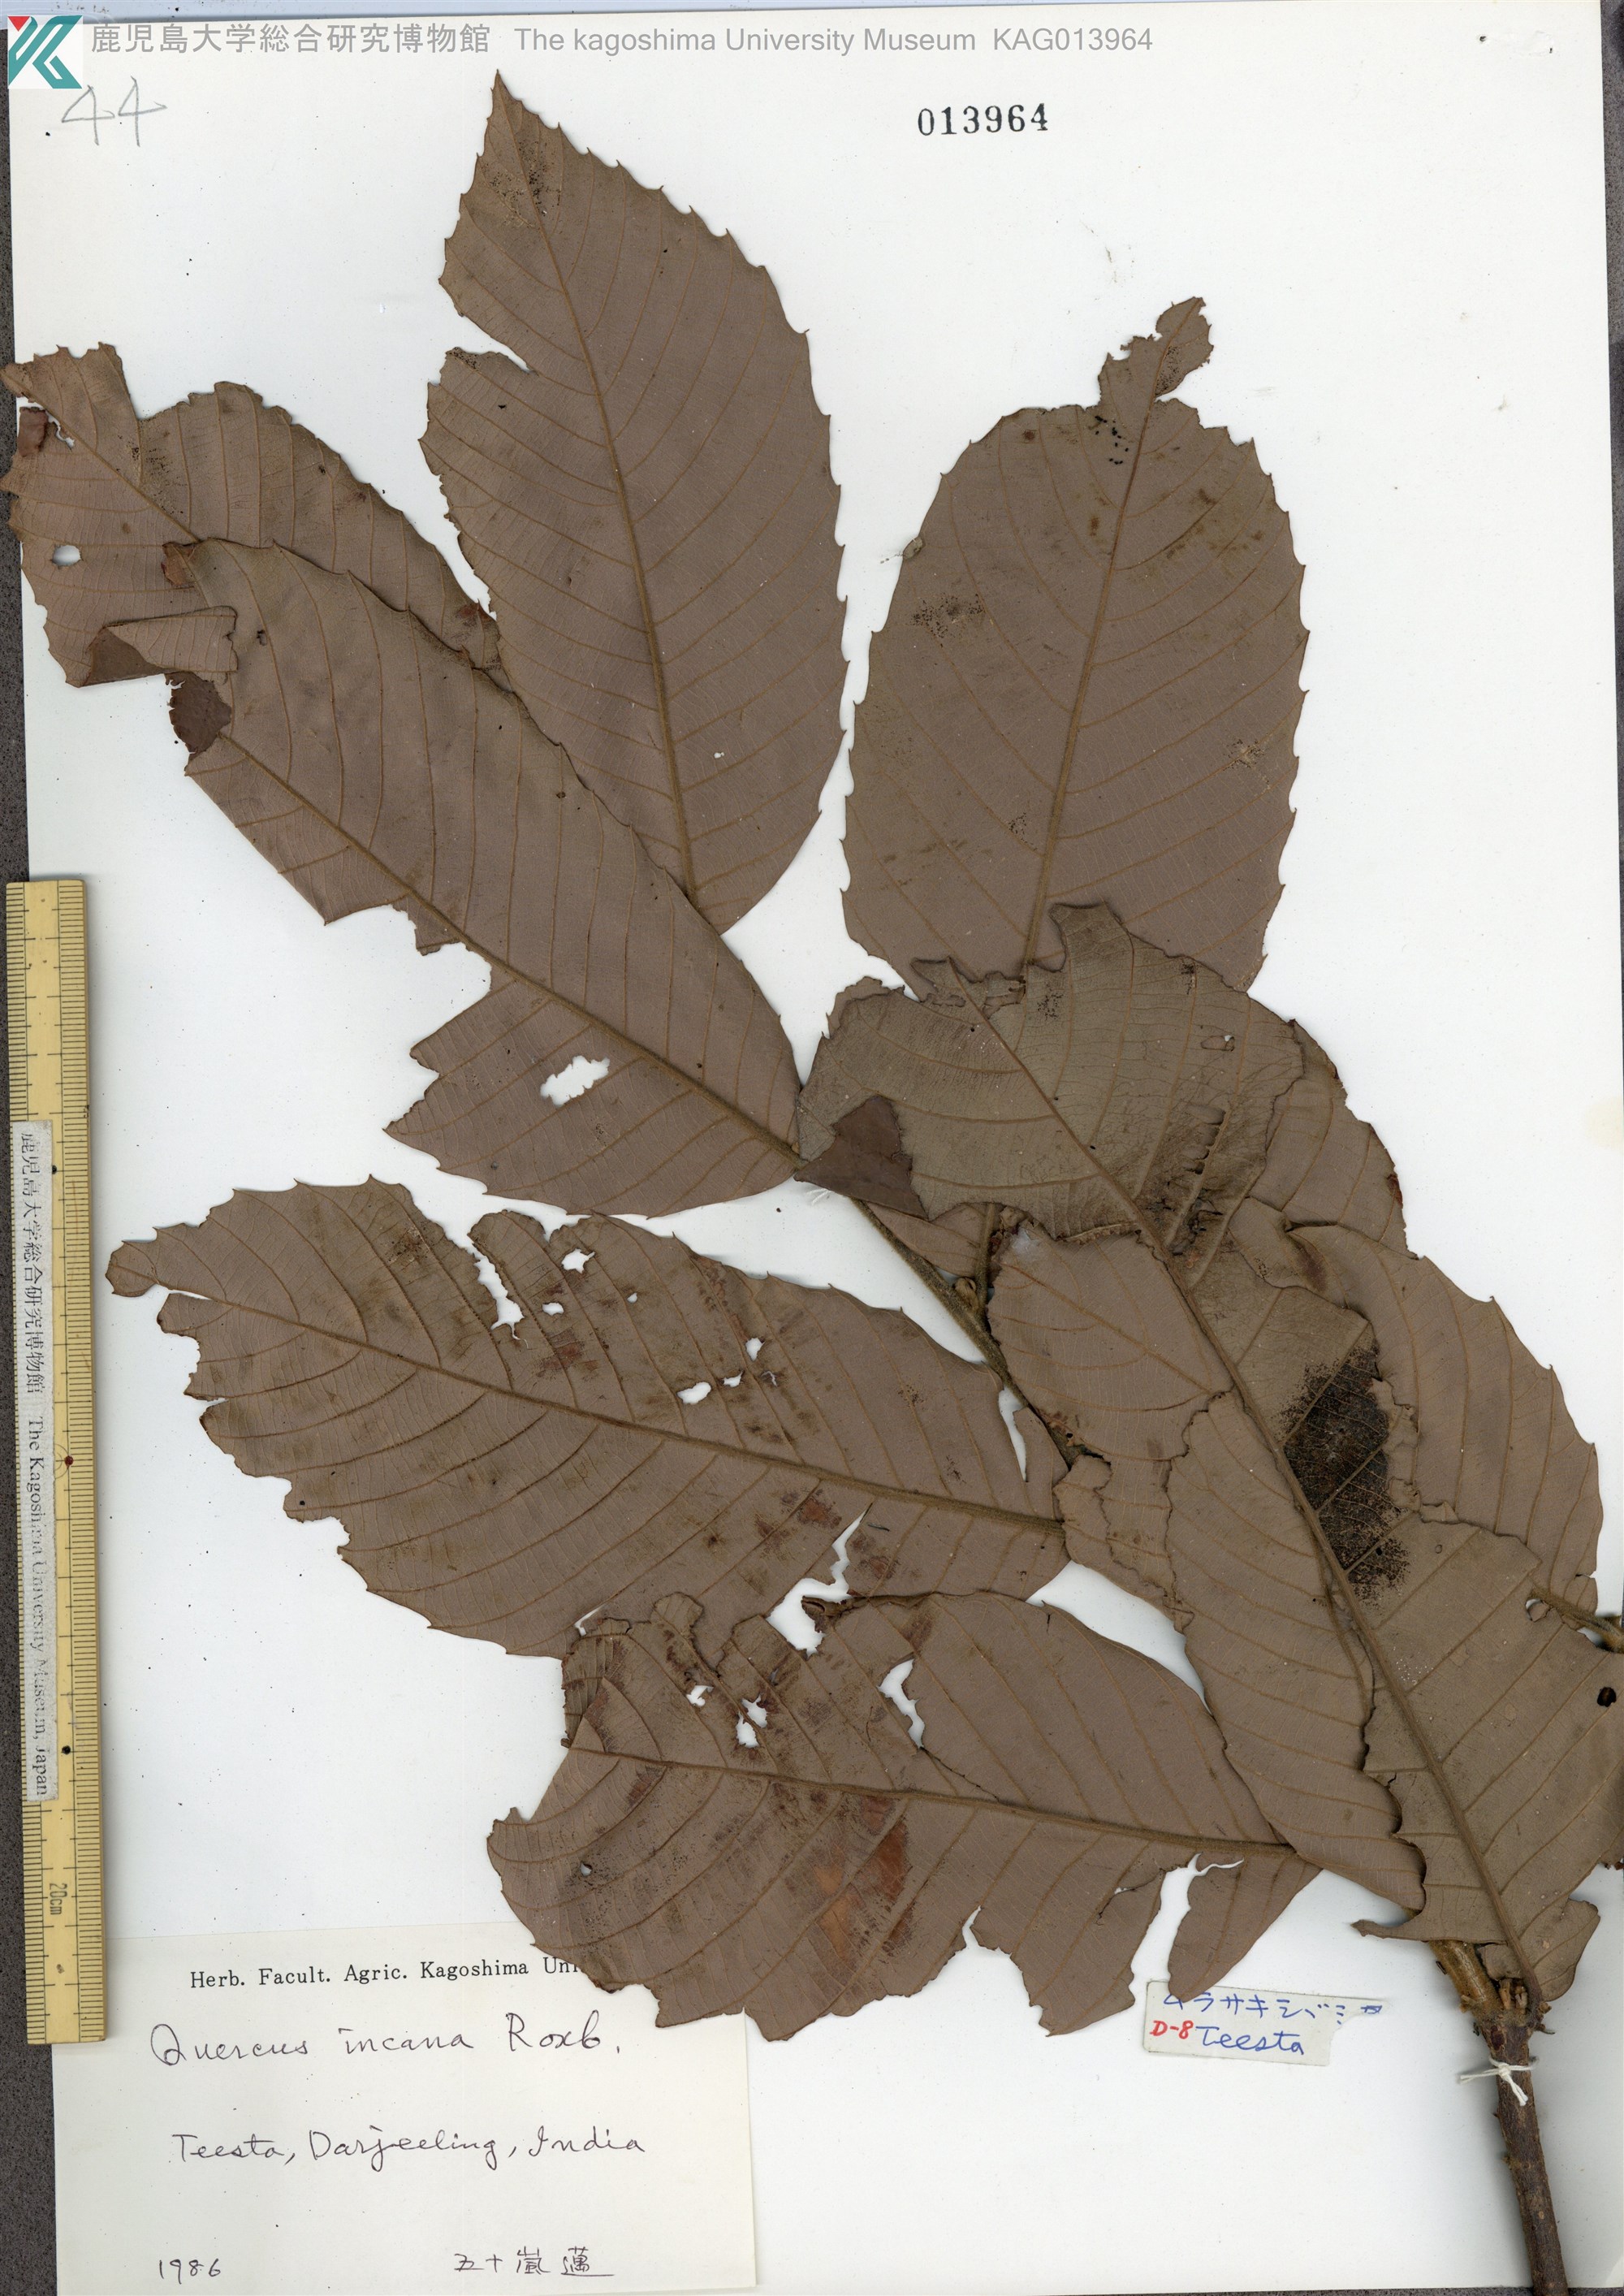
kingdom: Plantae
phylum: Tracheophyta
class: Magnoliopsida
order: Fagales
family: Fagaceae
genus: Quercus
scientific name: Quercus leucotrichophora
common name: Banj oak
